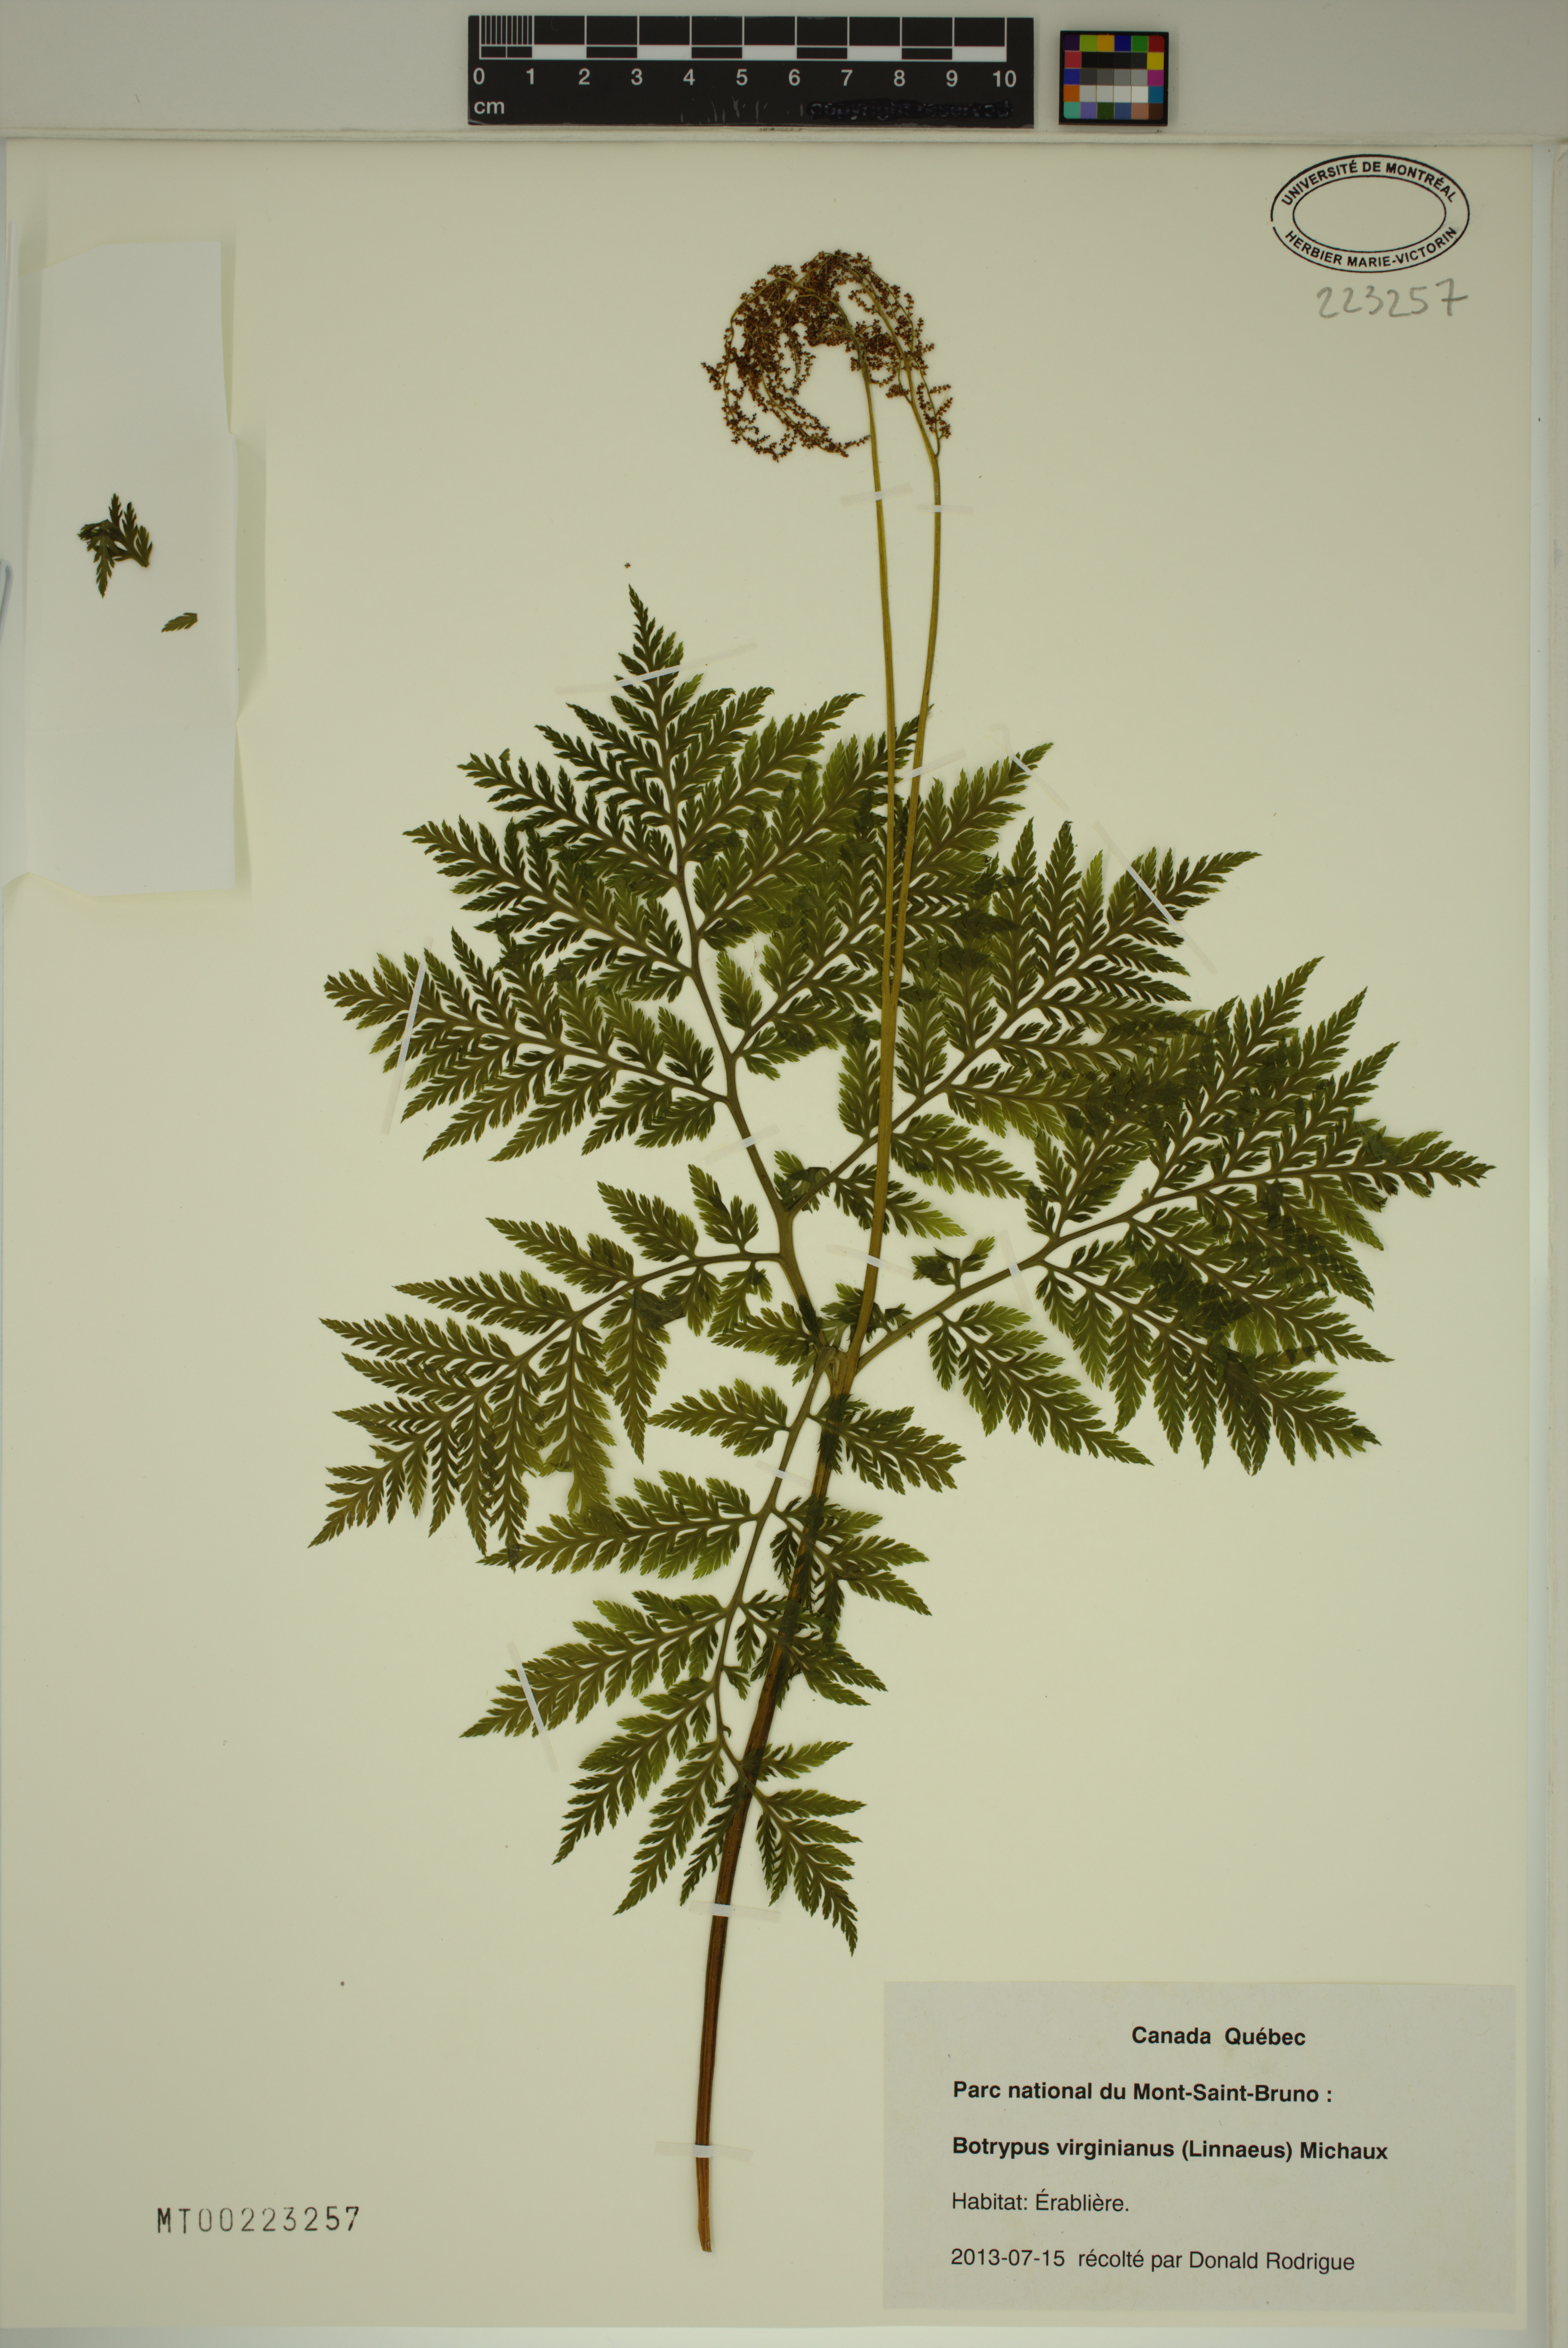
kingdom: Plantae
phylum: Tracheophyta
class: Polypodiopsida
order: Ophioglossales
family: Ophioglossaceae
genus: Botrypus
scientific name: Botrypus virginianus
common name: Common grapefern
